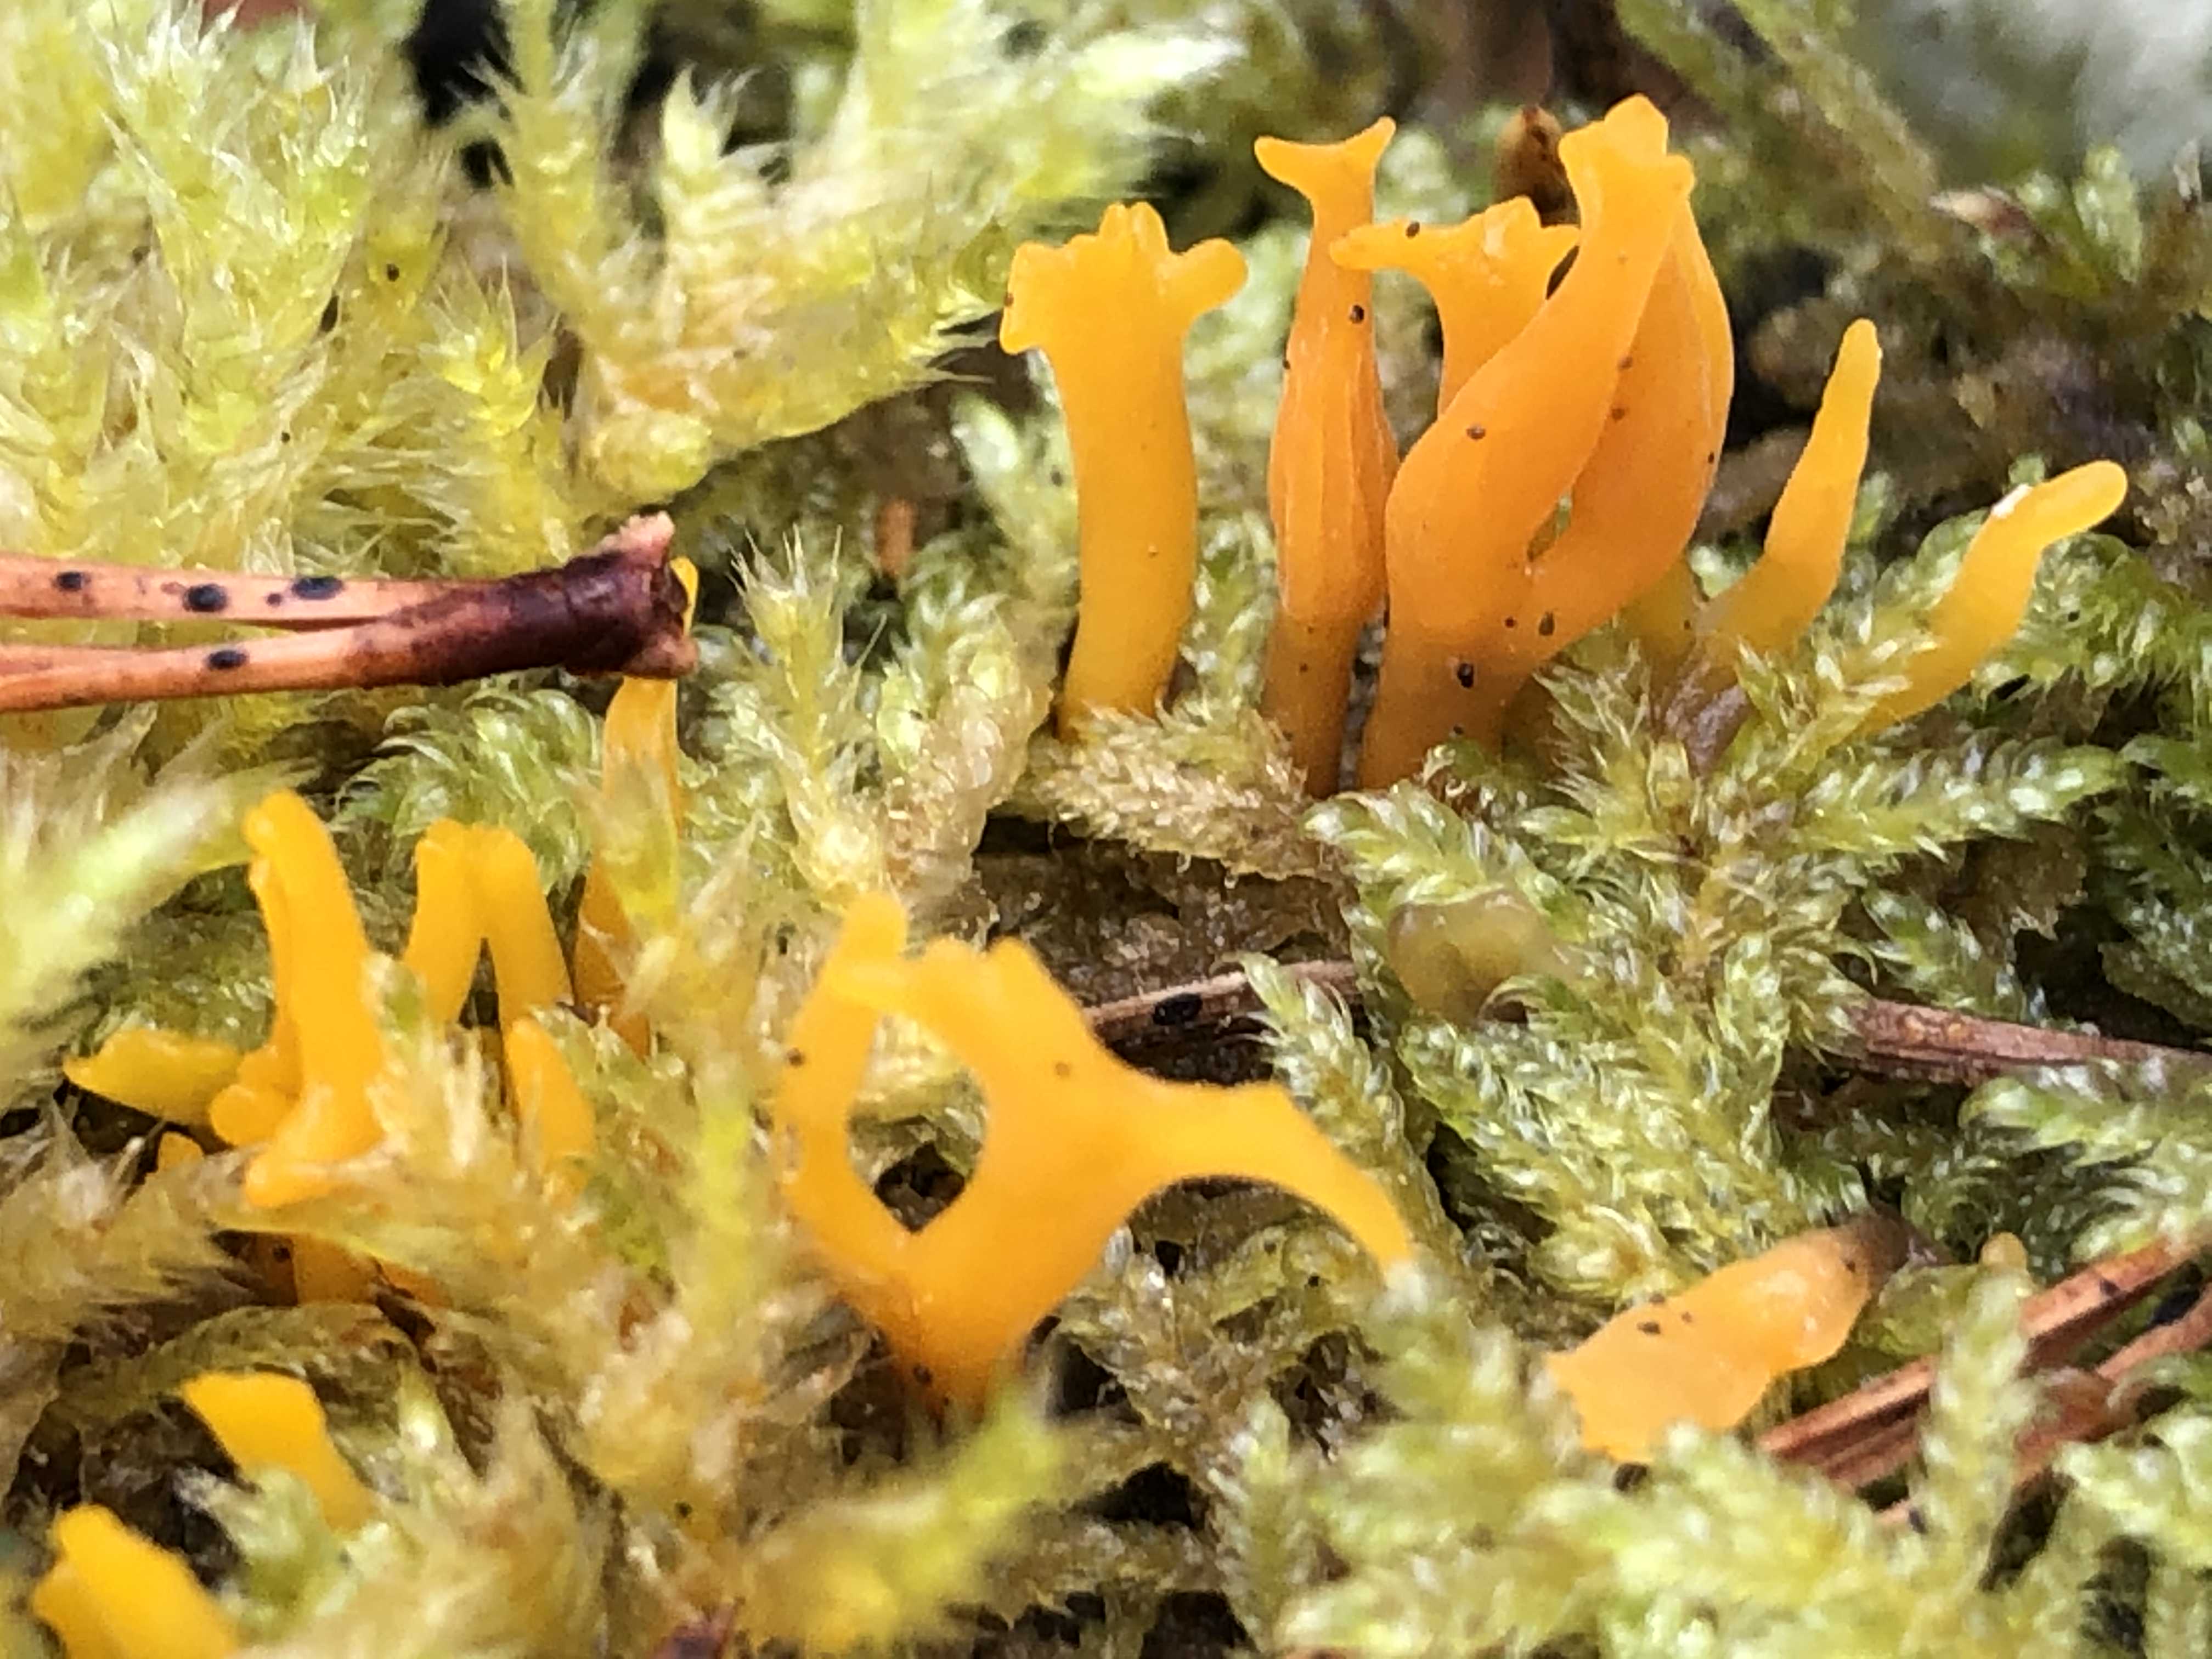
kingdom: Fungi
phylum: Basidiomycota
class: Dacrymycetes
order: Dacrymycetales
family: Dacrymycetaceae
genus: Calocera
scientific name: Calocera furcata
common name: fyrre-guldgaffel
